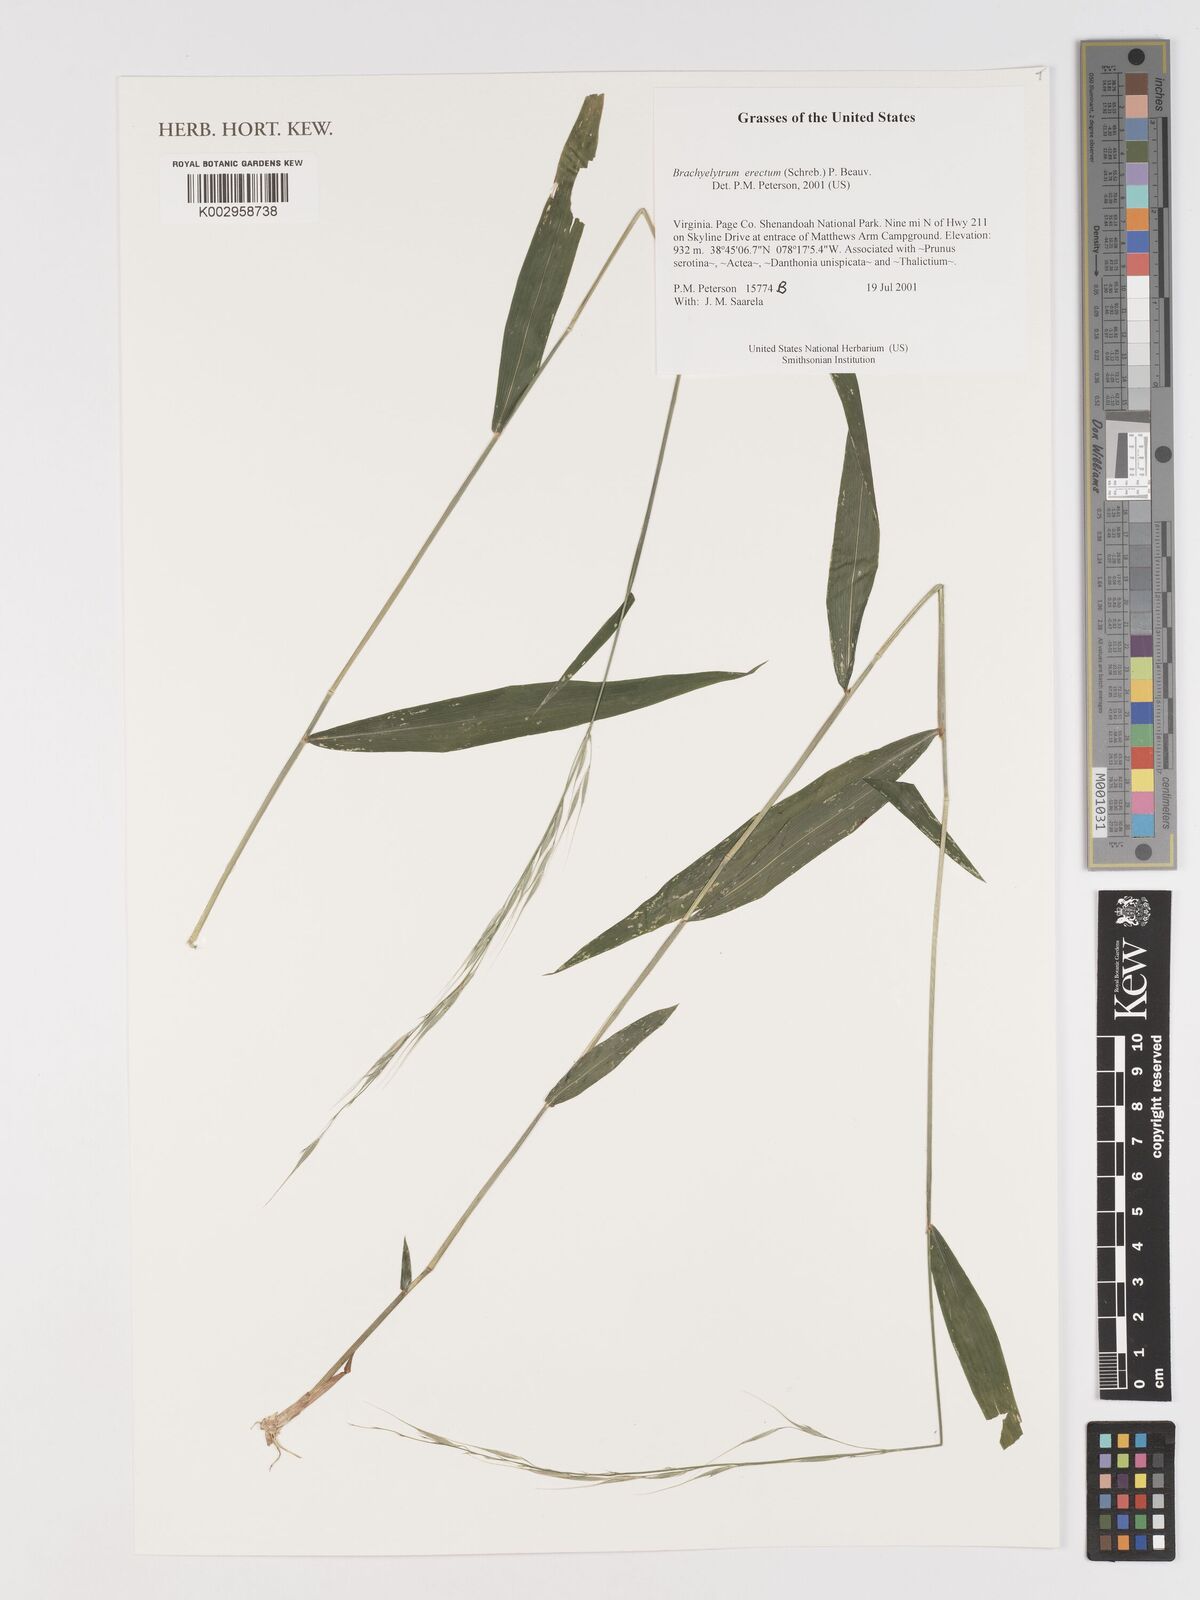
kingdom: Plantae
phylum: Tracheophyta
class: Liliopsida
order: Poales
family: Poaceae
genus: Brachyelytrum
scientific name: Brachyelytrum erectum
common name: Bearded shorthusk
